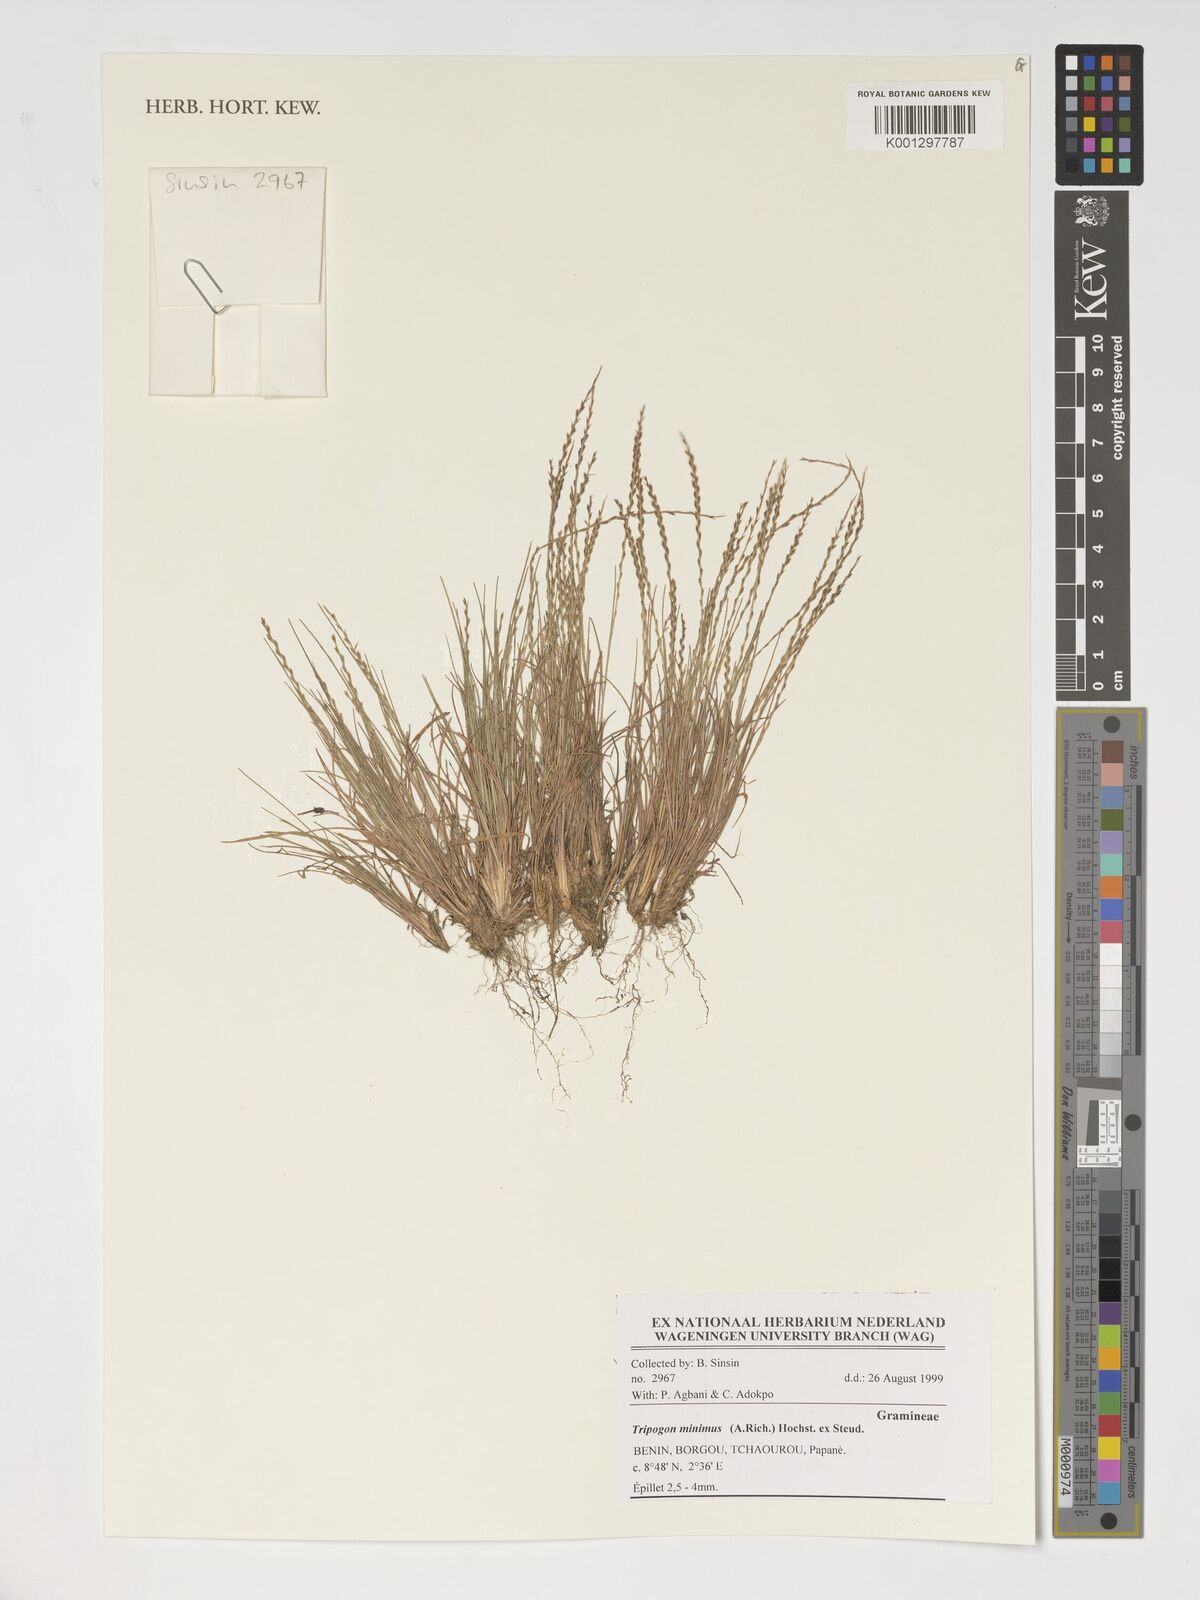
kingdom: Plantae
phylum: Tracheophyta
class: Liliopsida
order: Poales
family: Poaceae
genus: Tripogonella
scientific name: Tripogonella minima
